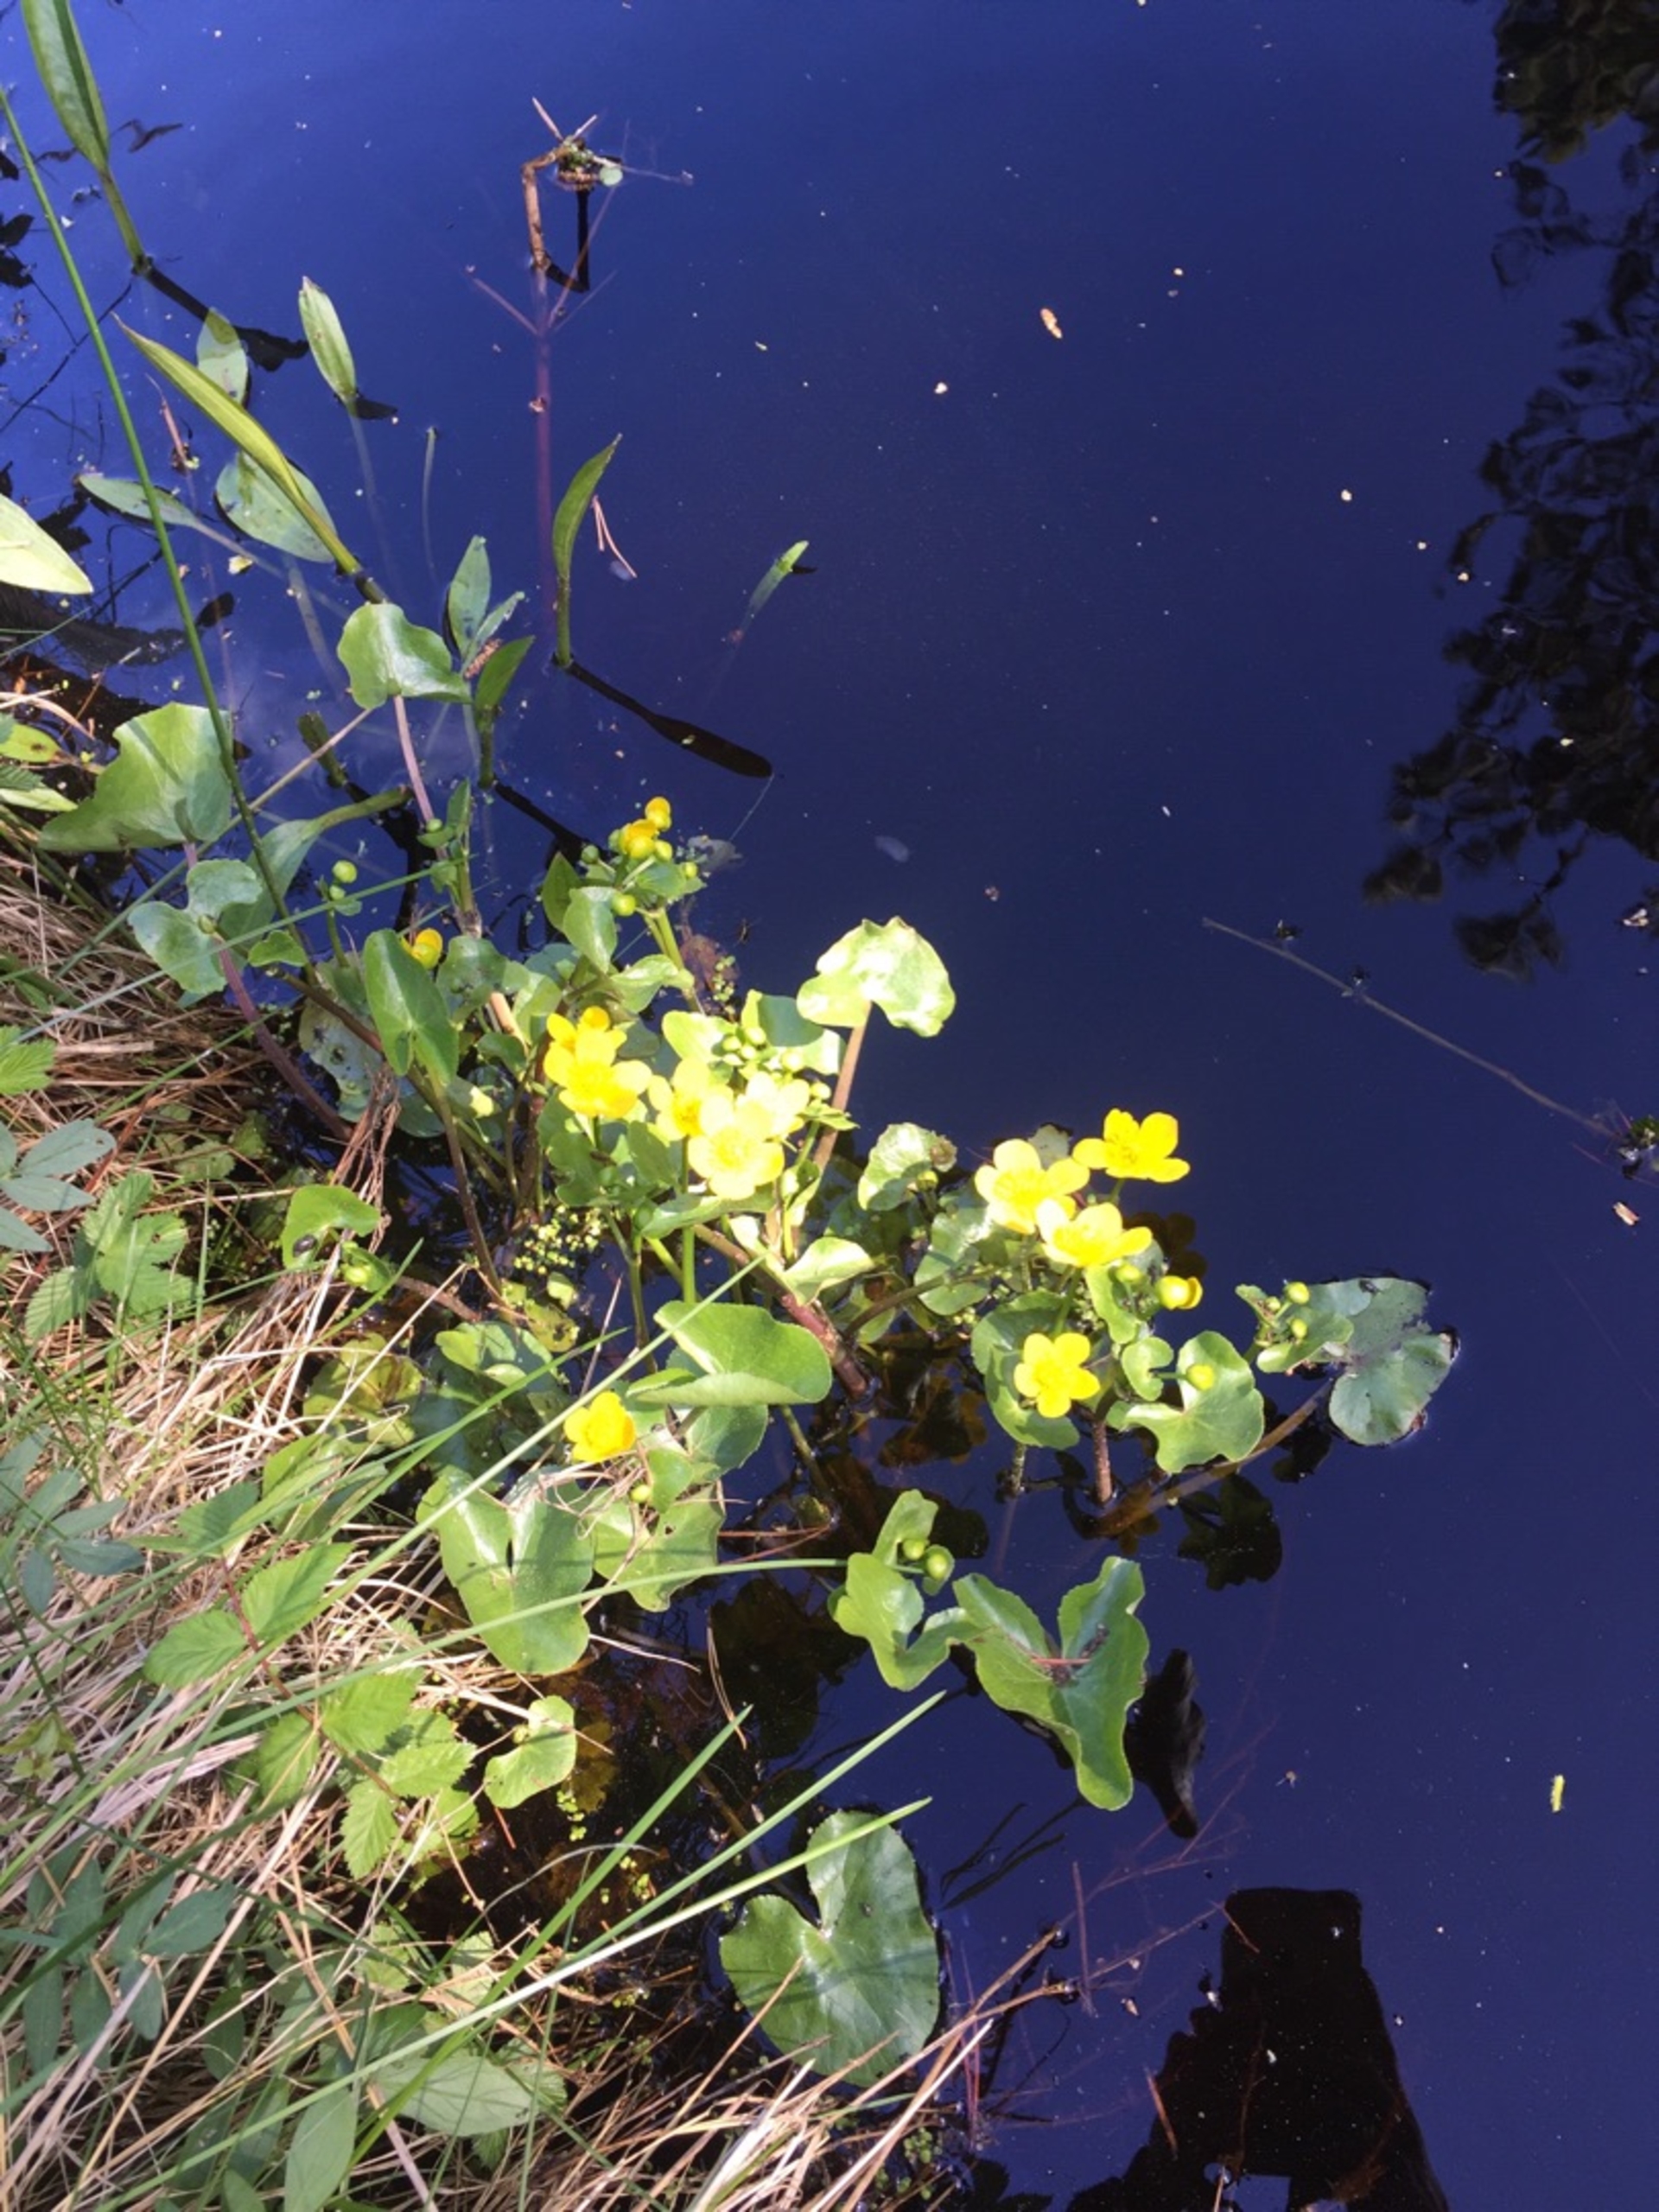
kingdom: Plantae
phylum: Tracheophyta
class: Magnoliopsida
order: Ranunculales
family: Ranunculaceae
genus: Caltha
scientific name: Caltha palustris
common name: Eng-kabbeleje
